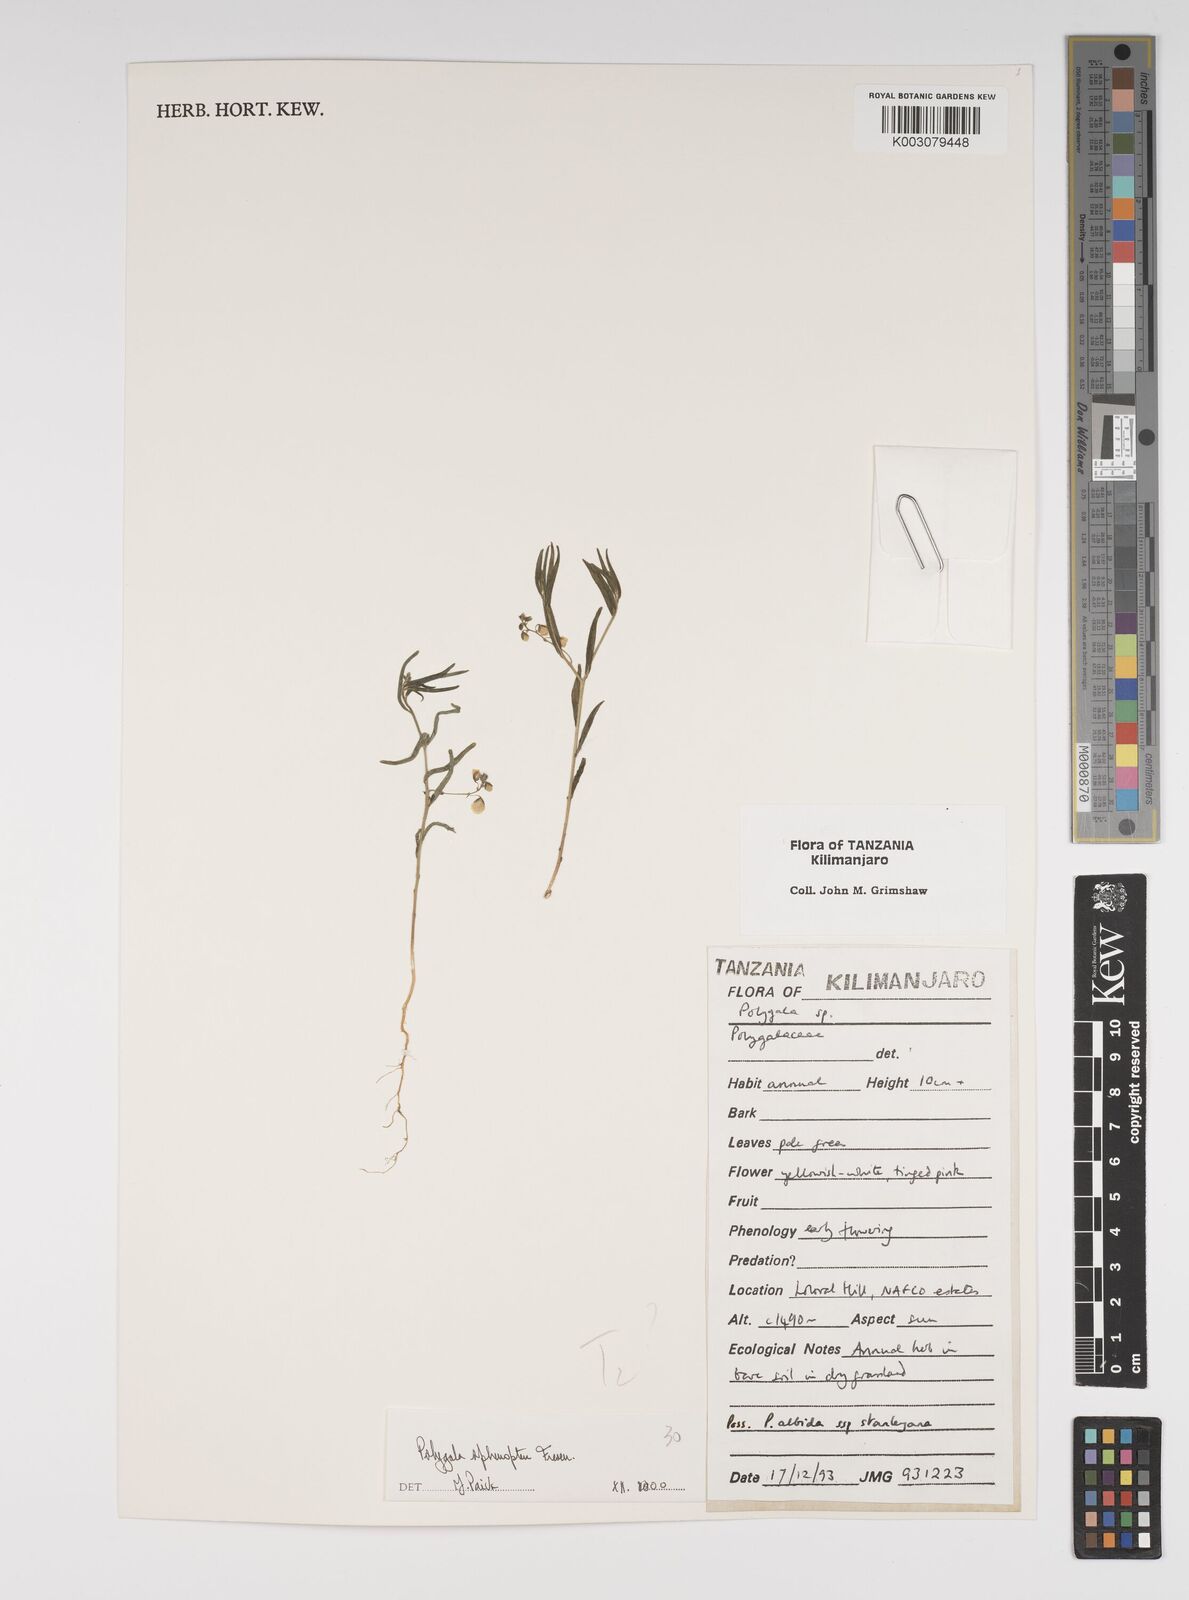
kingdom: Plantae
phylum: Tracheophyta
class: Magnoliopsida
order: Fabales
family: Polygalaceae
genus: Polygala
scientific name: Polygala sphenoptera
